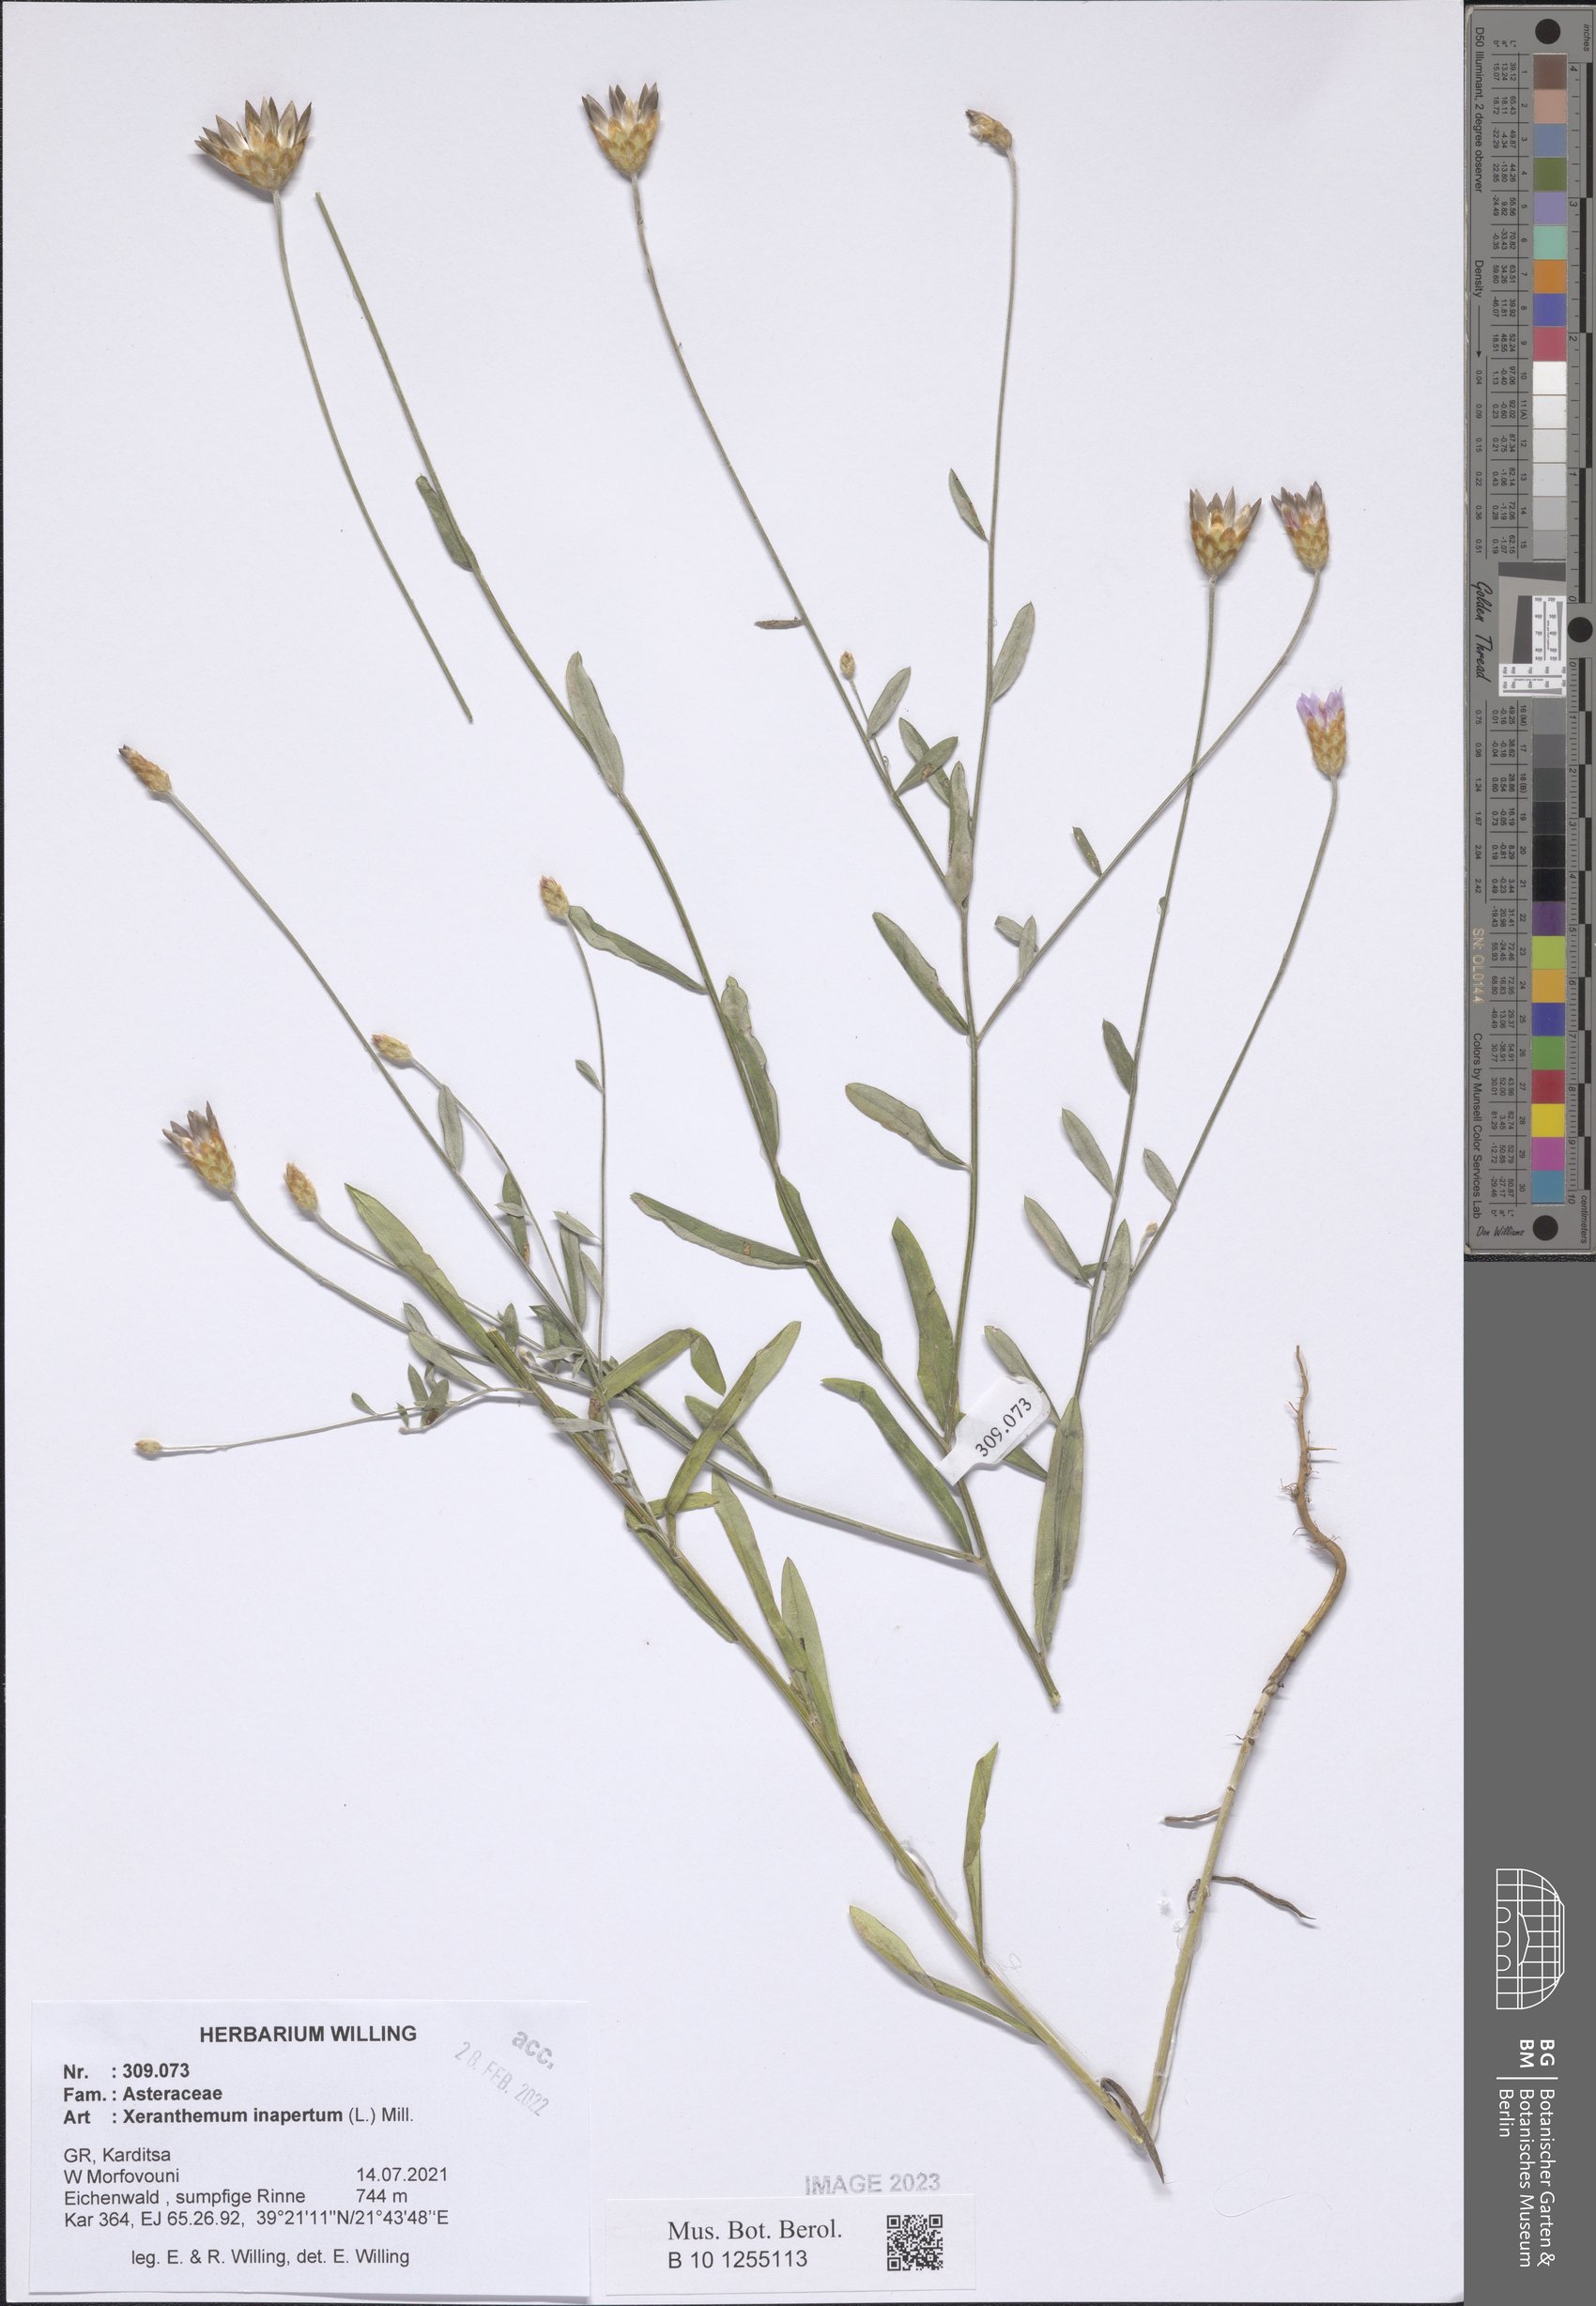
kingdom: Plantae
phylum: Tracheophyta
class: Magnoliopsida
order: Asterales
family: Asteraceae
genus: Xeranthemum
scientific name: Xeranthemum inapertum
